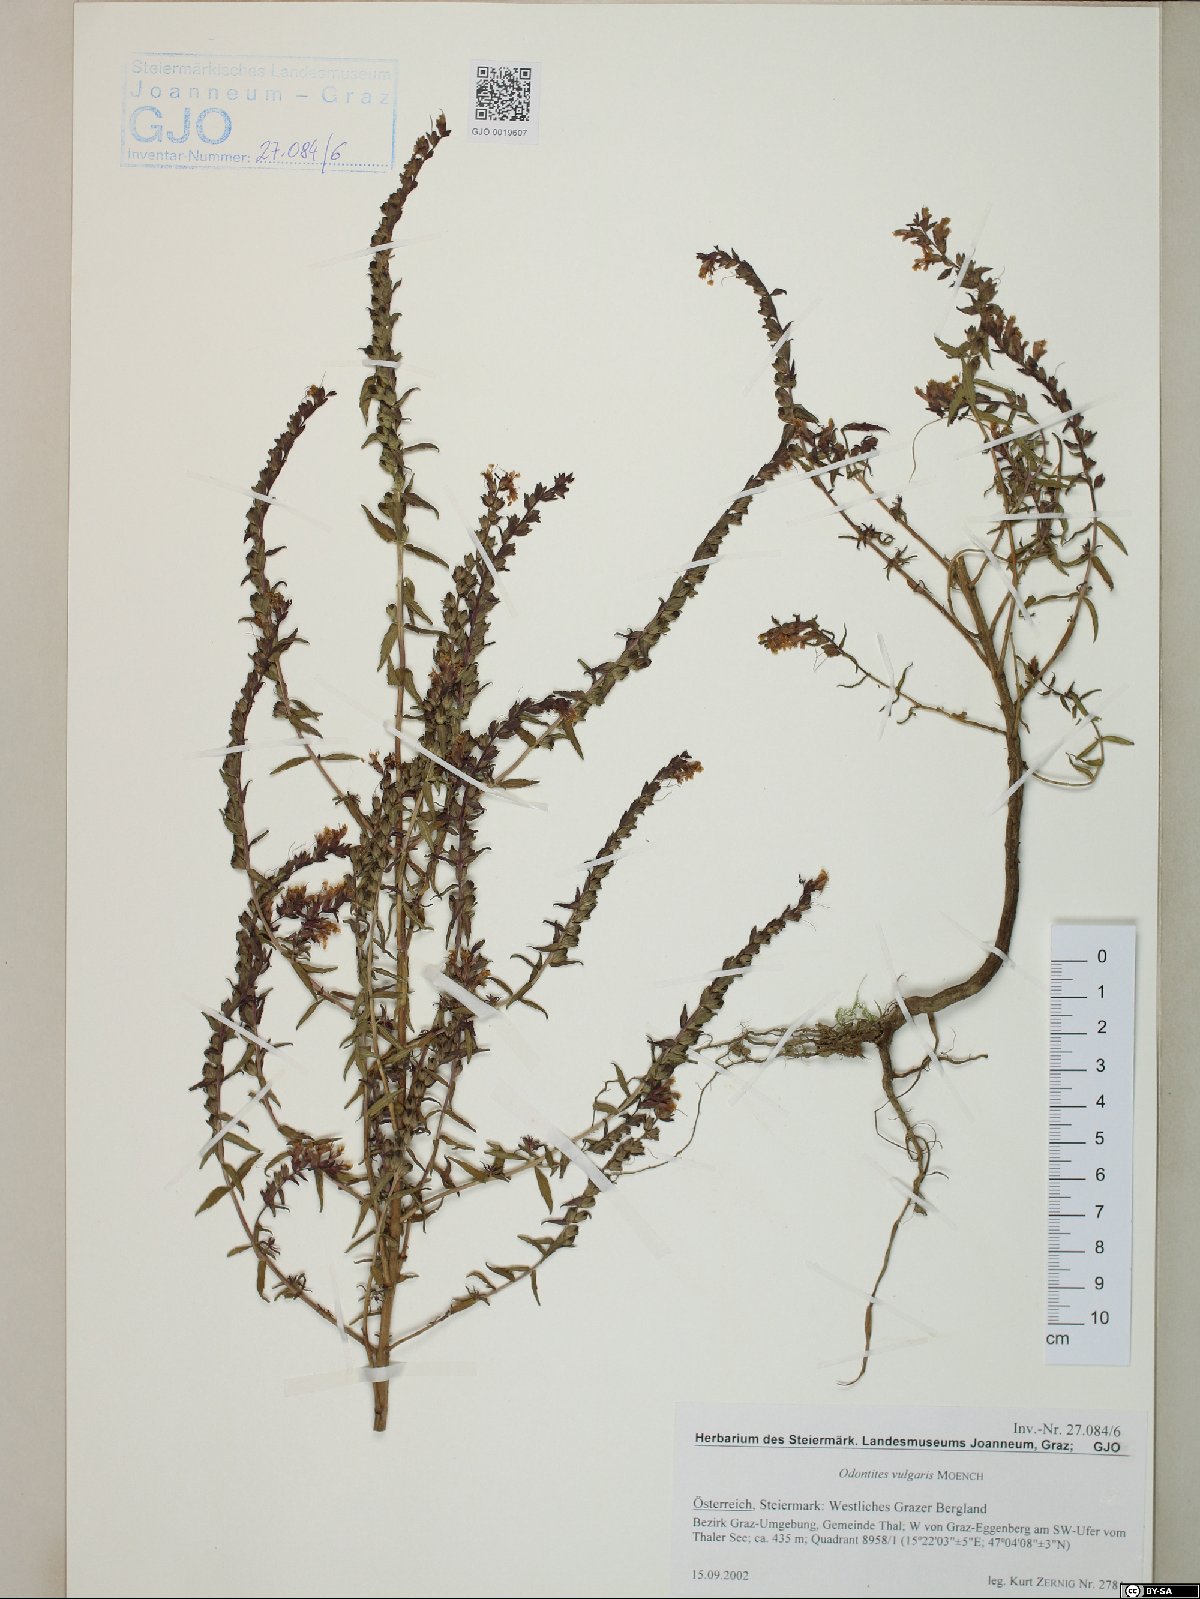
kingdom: Plantae
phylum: Tracheophyta
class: Magnoliopsida
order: Lamiales
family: Orobanchaceae
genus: Odontites
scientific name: Odontites vulgaris
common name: Broomrape
